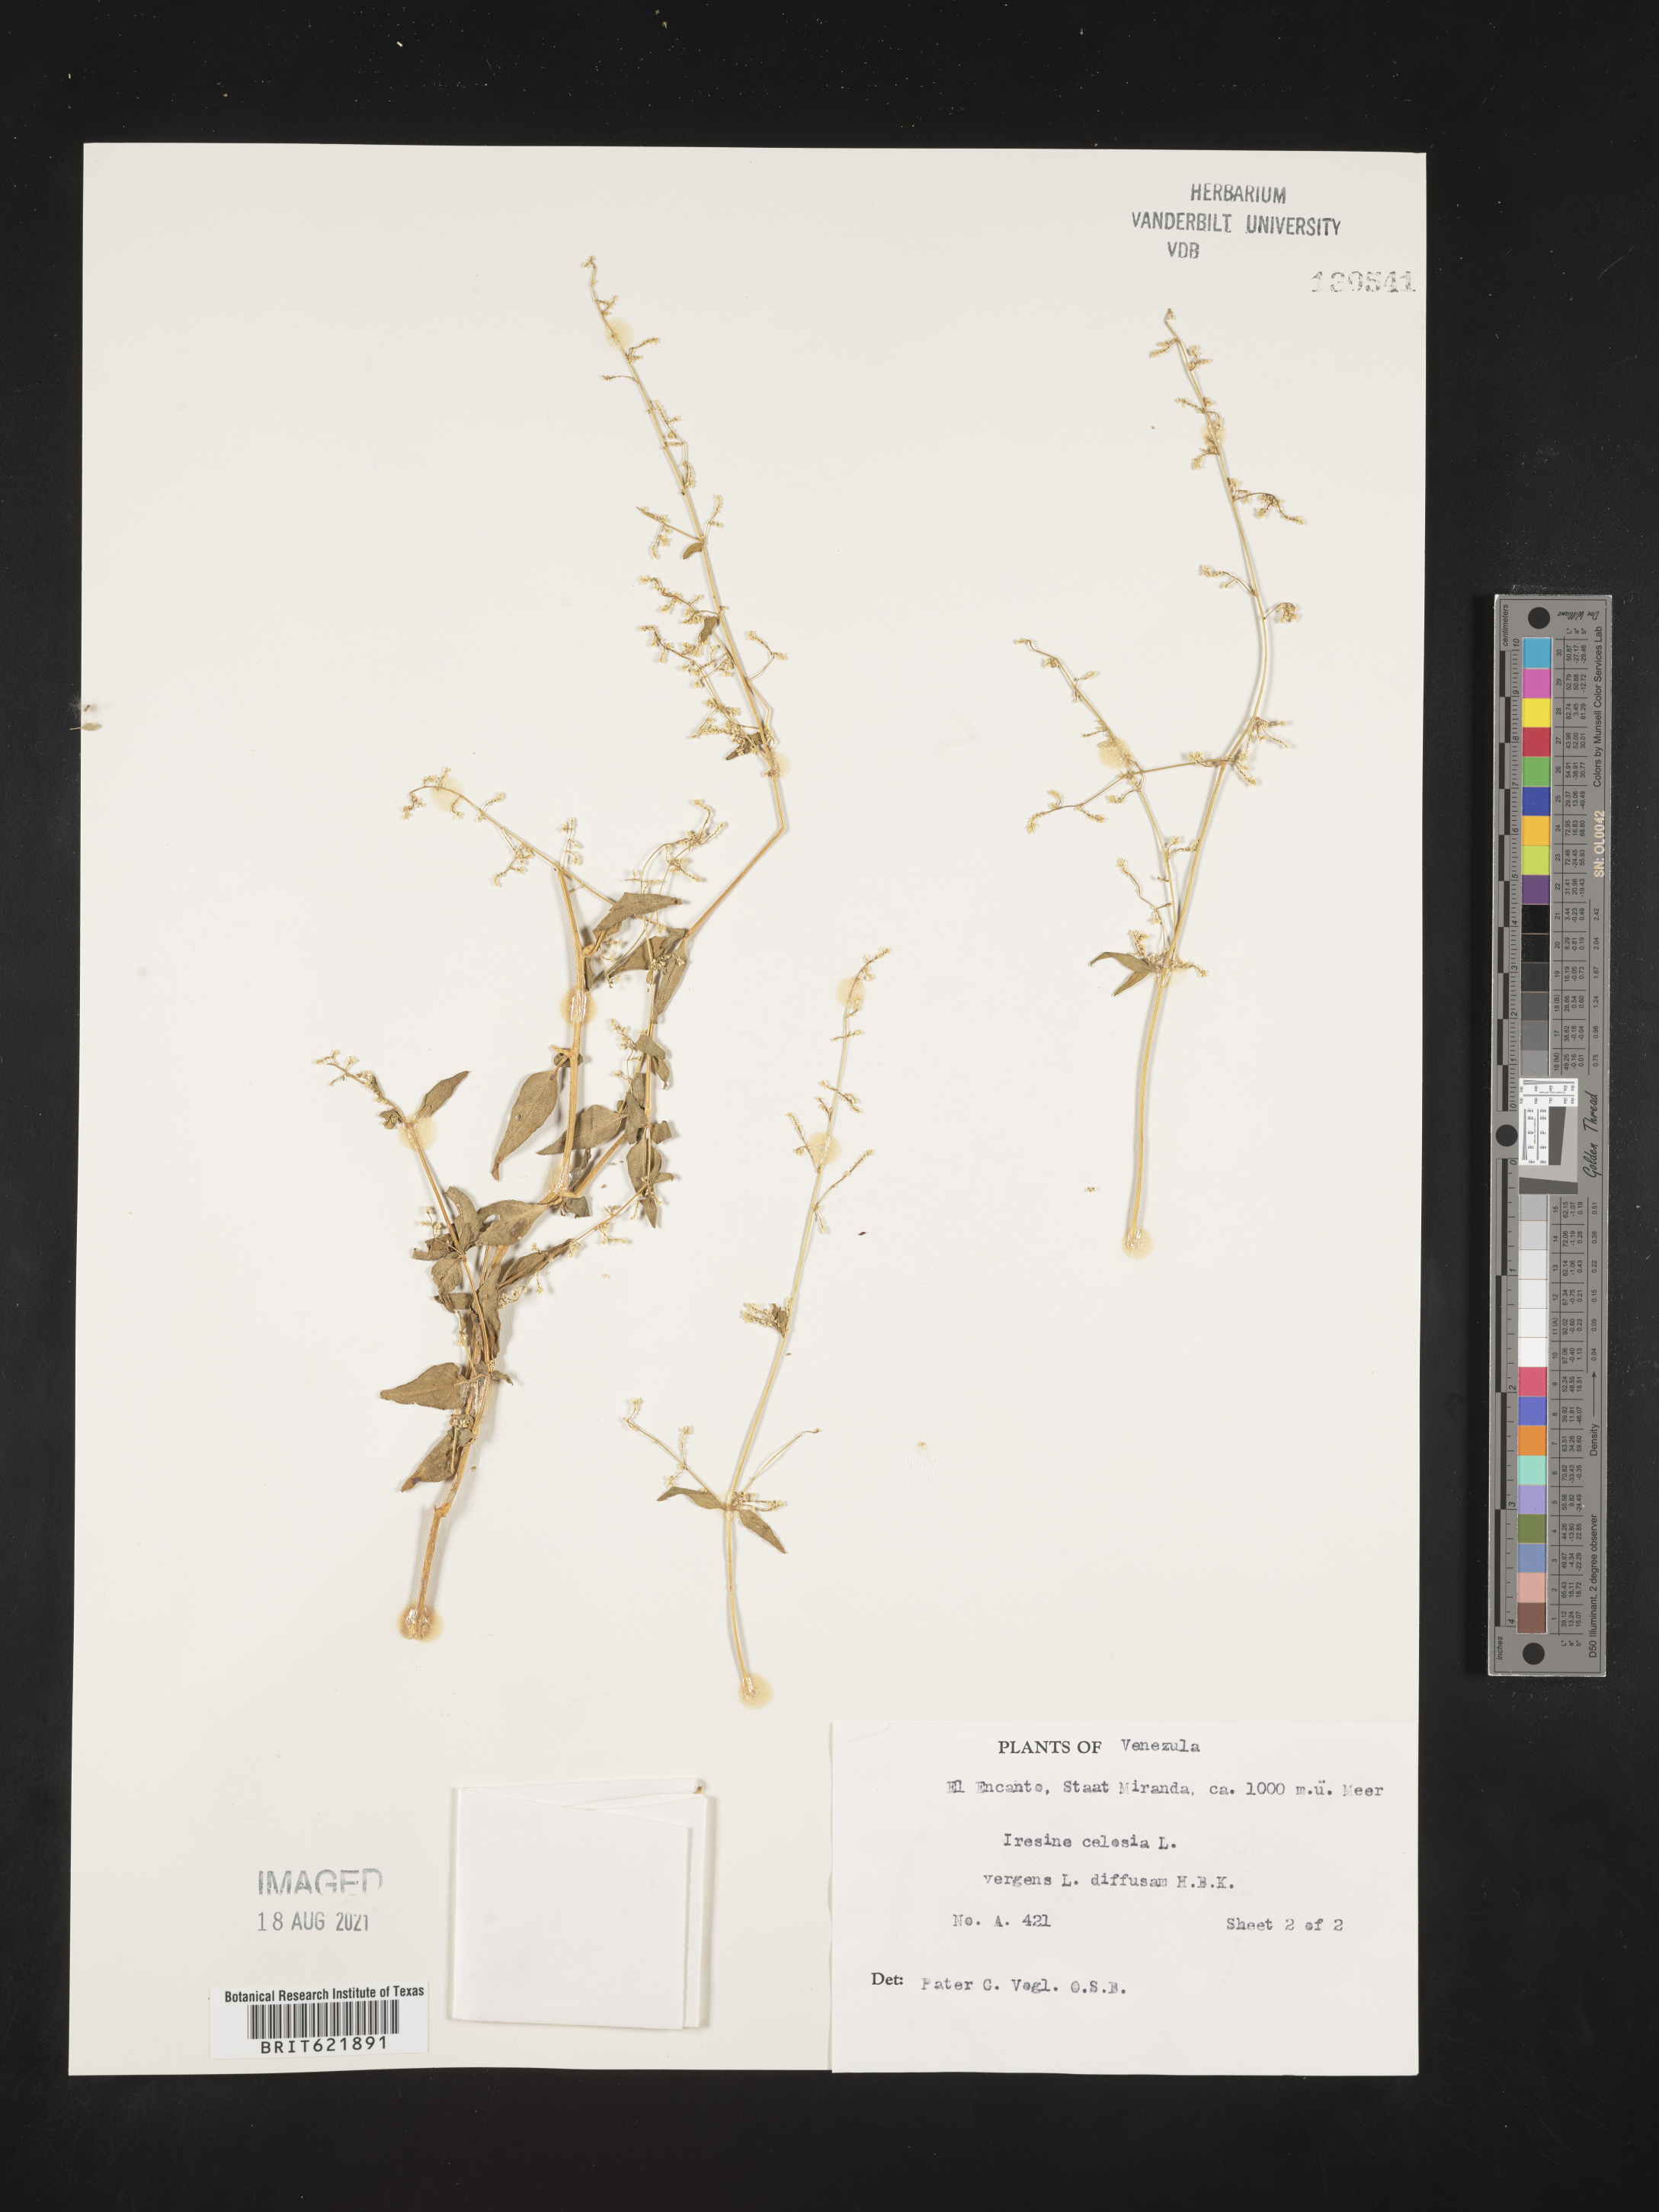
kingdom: Plantae
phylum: Tracheophyta
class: Magnoliopsida
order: Caryophyllales
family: Amaranthaceae
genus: Iresine
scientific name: Iresine rhizomatosa
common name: Juda's-bush
